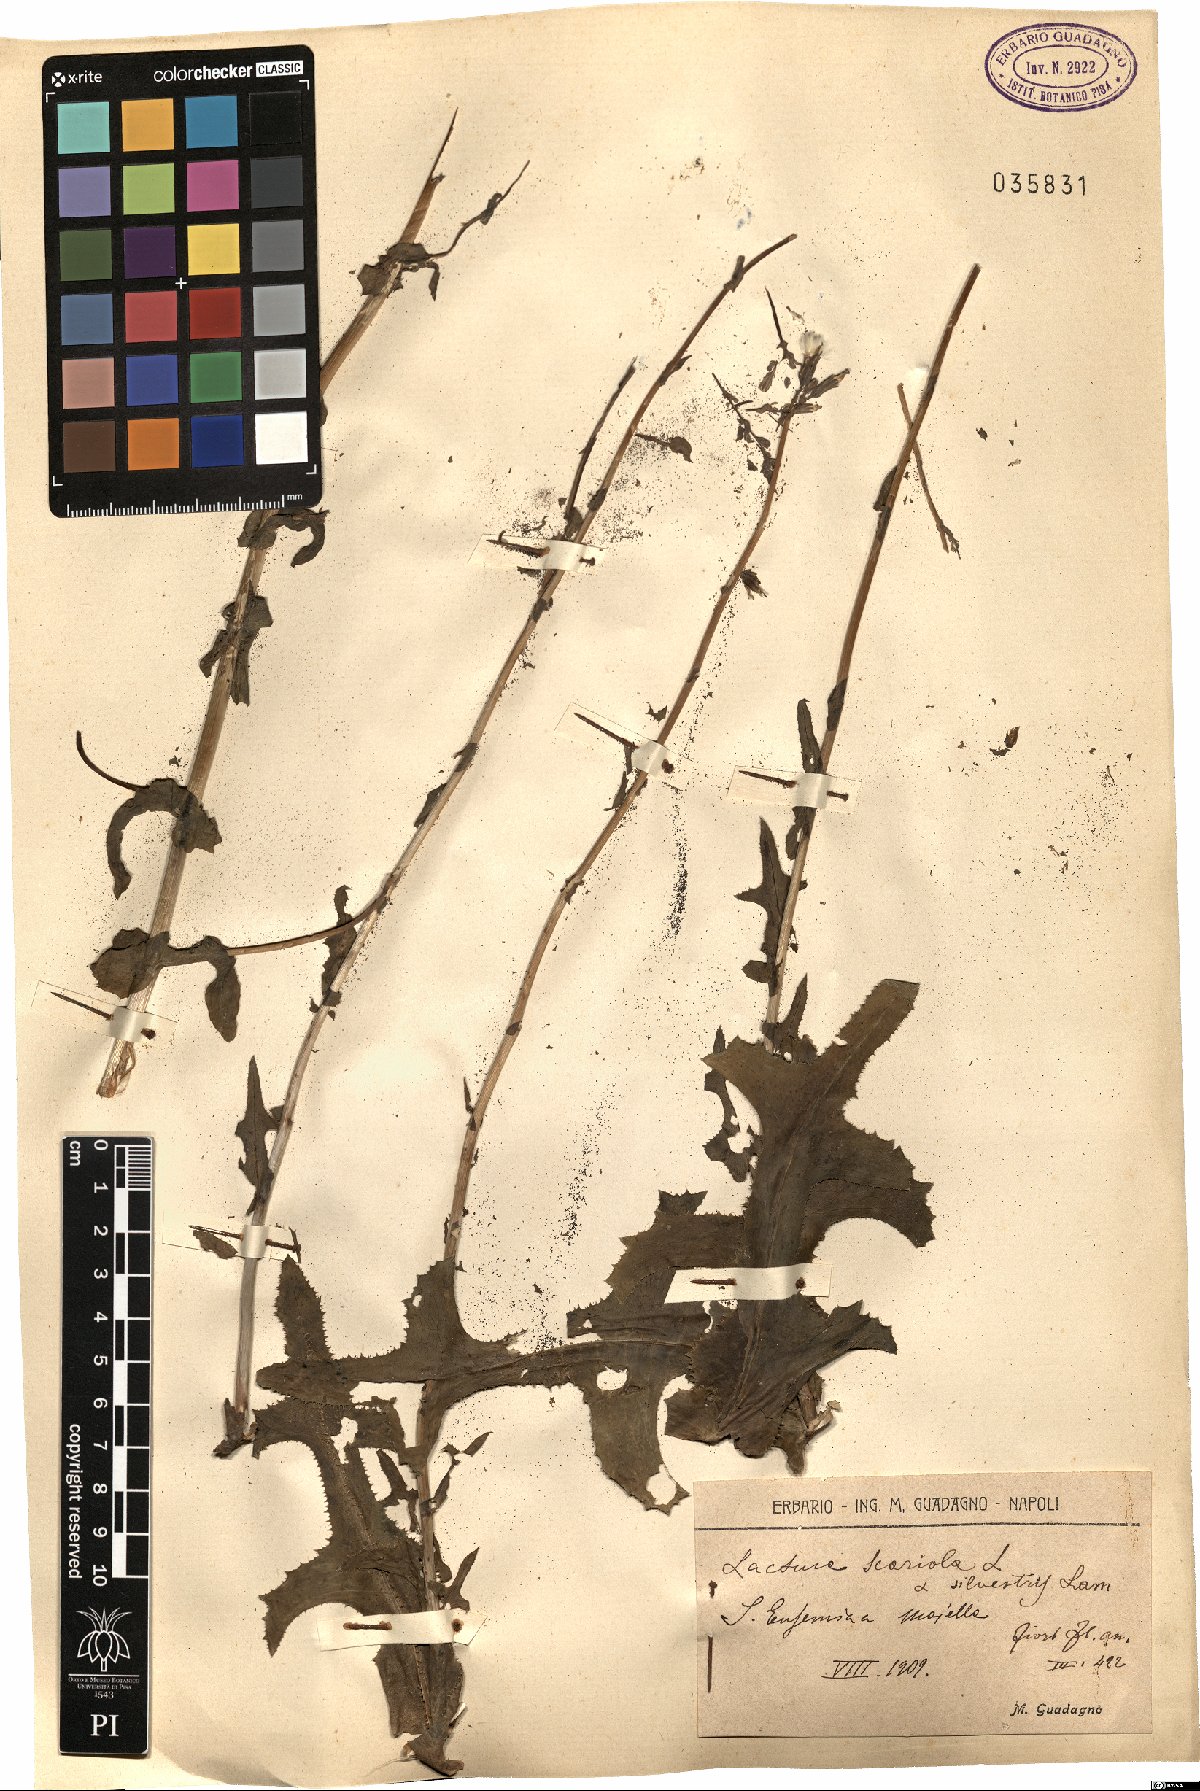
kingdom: Plantae
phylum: Tracheophyta
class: Magnoliopsida
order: Asterales
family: Asteraceae
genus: Lactuca
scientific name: Lactuca serriola
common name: Prickly lettuce
